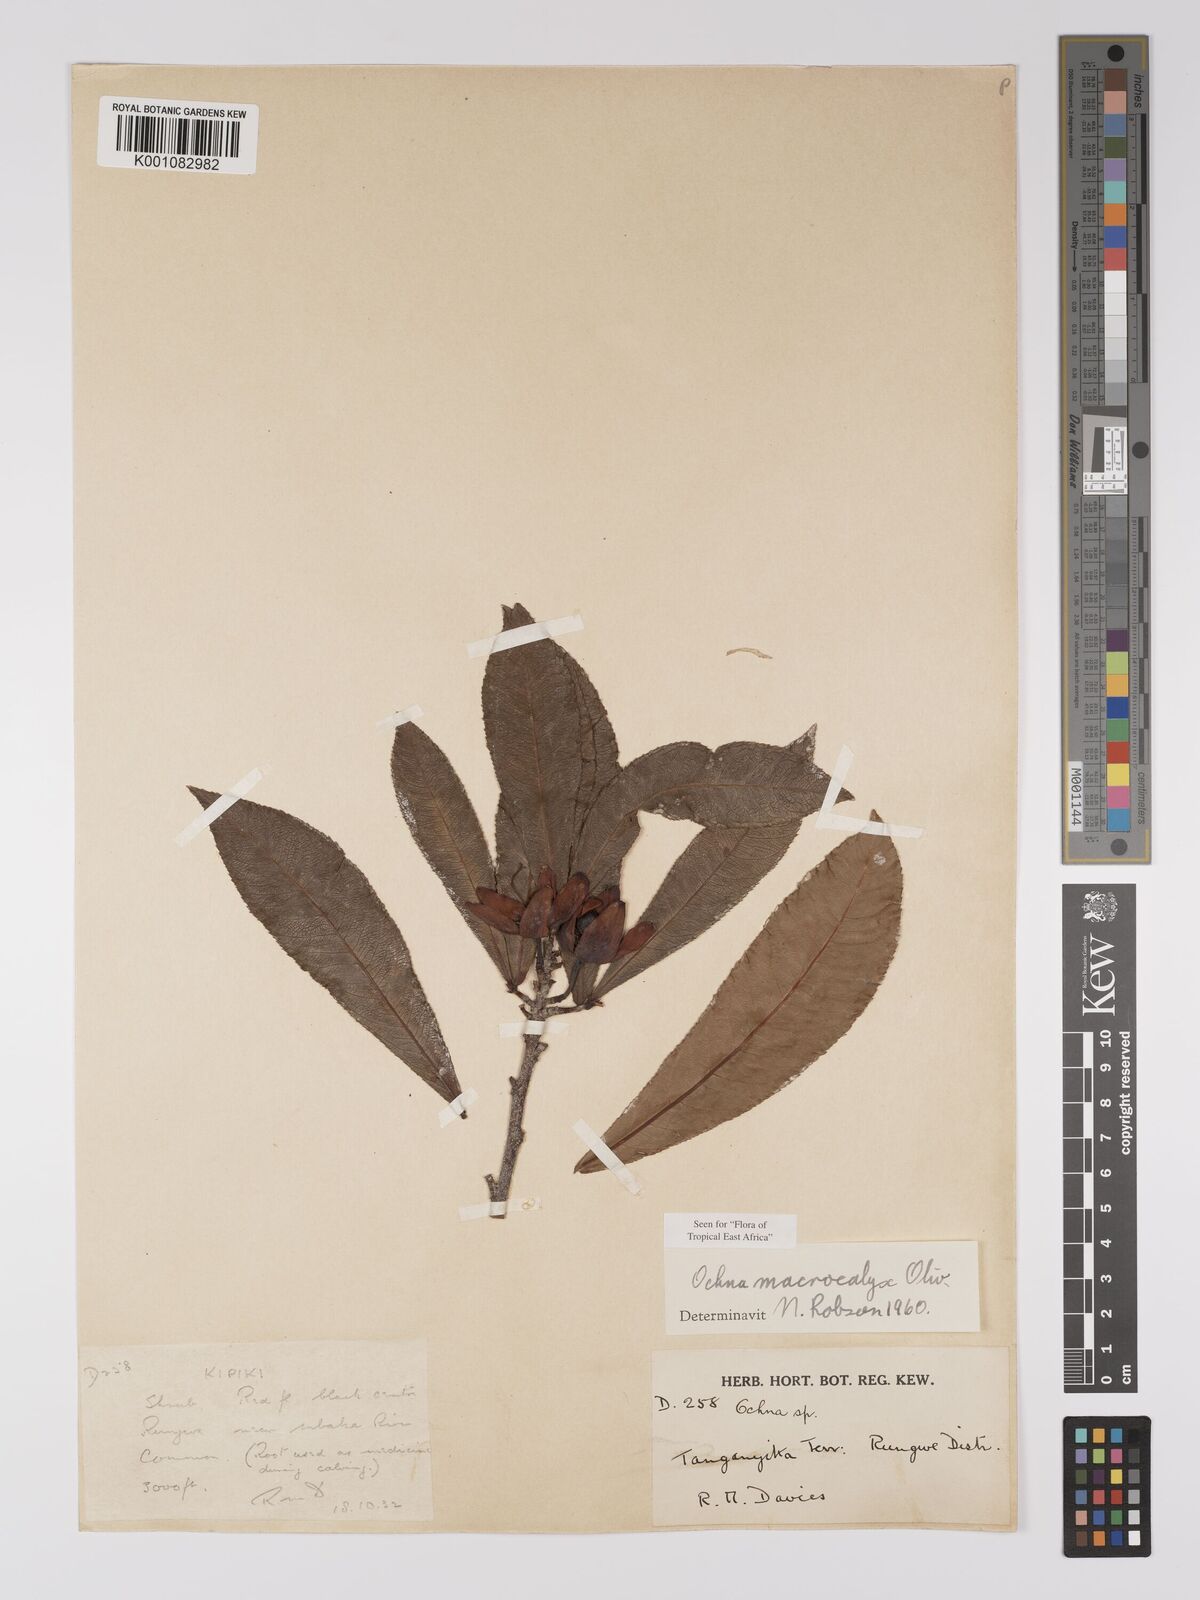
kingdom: Plantae
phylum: Tracheophyta
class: Magnoliopsida
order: Malpighiales
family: Ochnaceae
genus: Ochna
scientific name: Ochna macrocalyx
